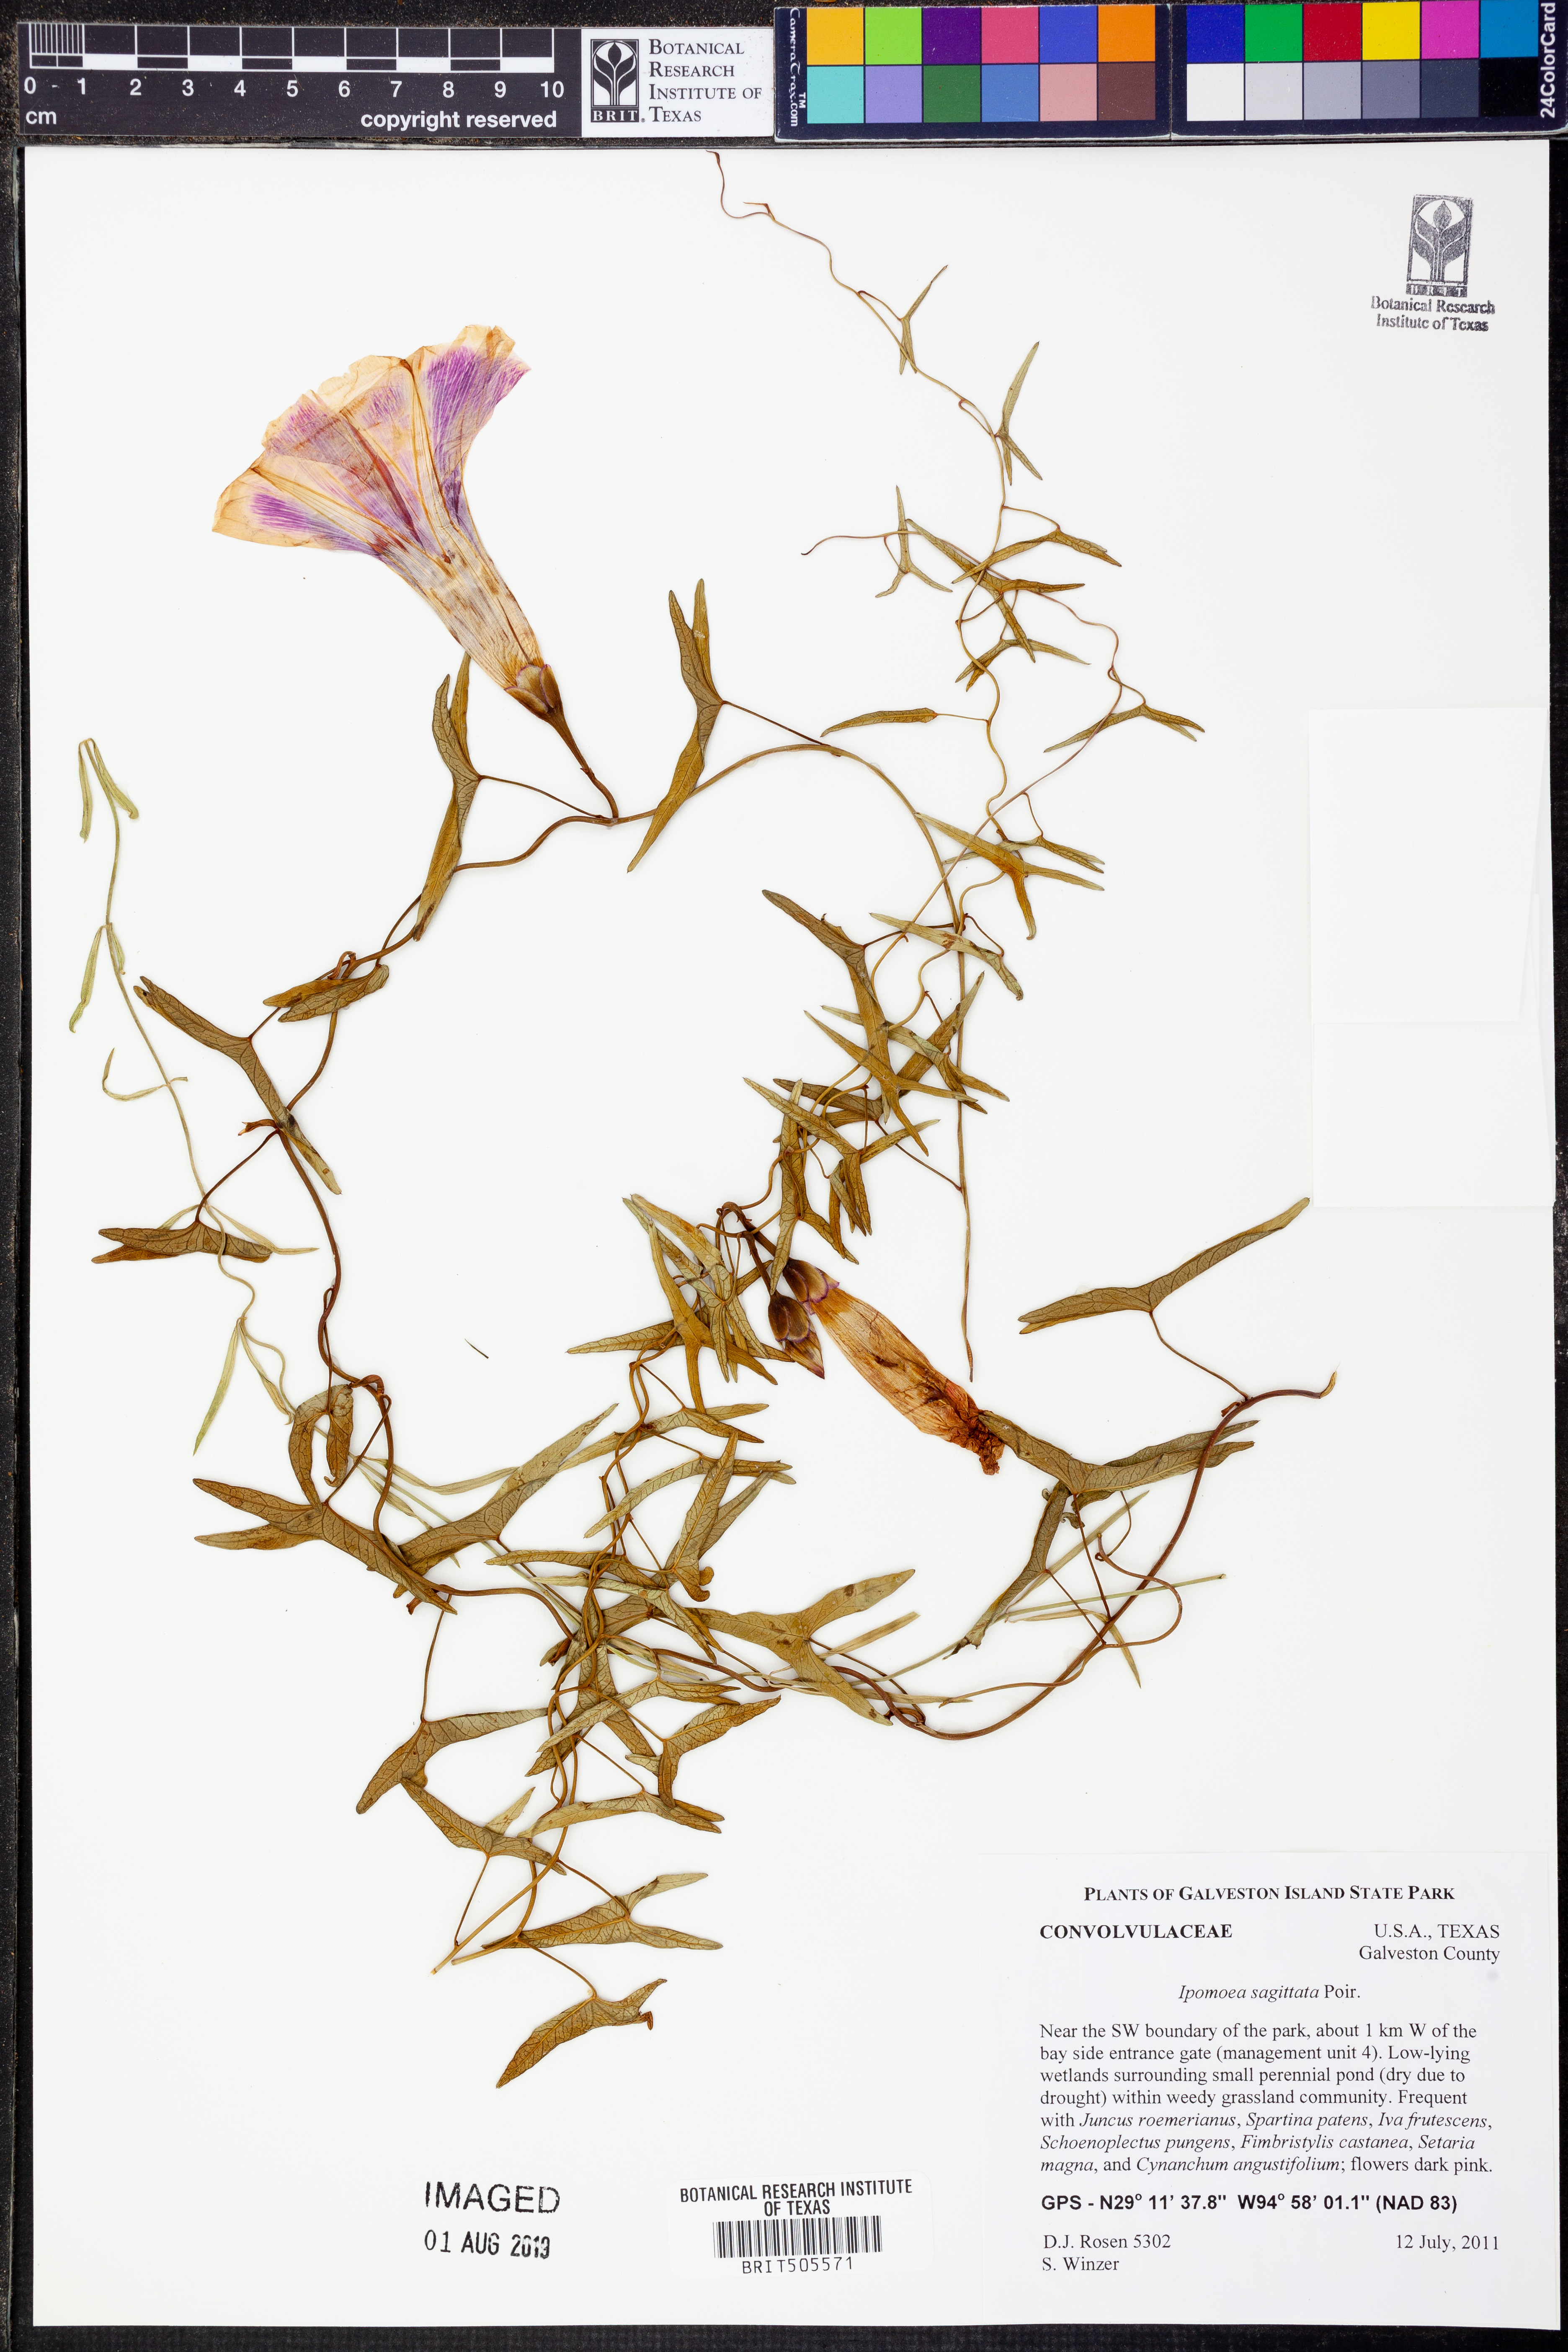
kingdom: Plantae
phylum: Tracheophyta
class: Magnoliopsida
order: Solanales
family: Convolvulaceae
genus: Ipomoea
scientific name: Ipomoea sinensis
